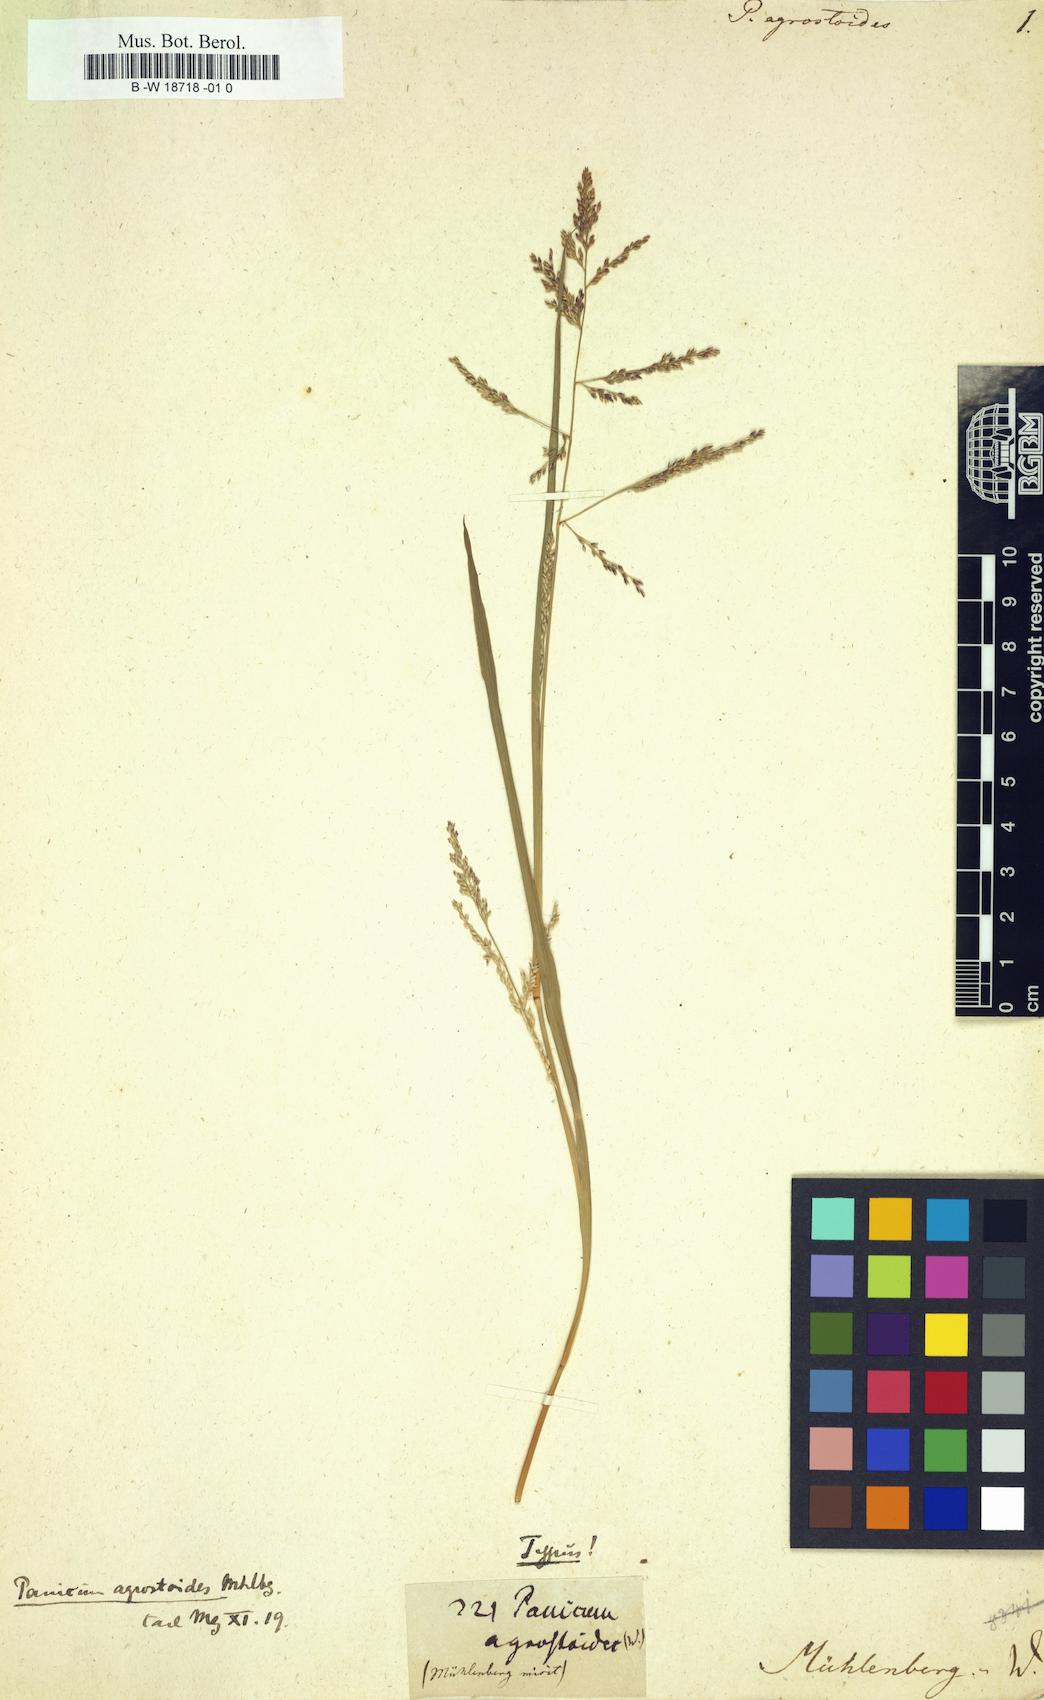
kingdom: Plantae
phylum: Tracheophyta
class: Liliopsida
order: Poales
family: Poaceae
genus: Coleataenia
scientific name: Coleataenia rigidula
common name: Redtop panicgrass
